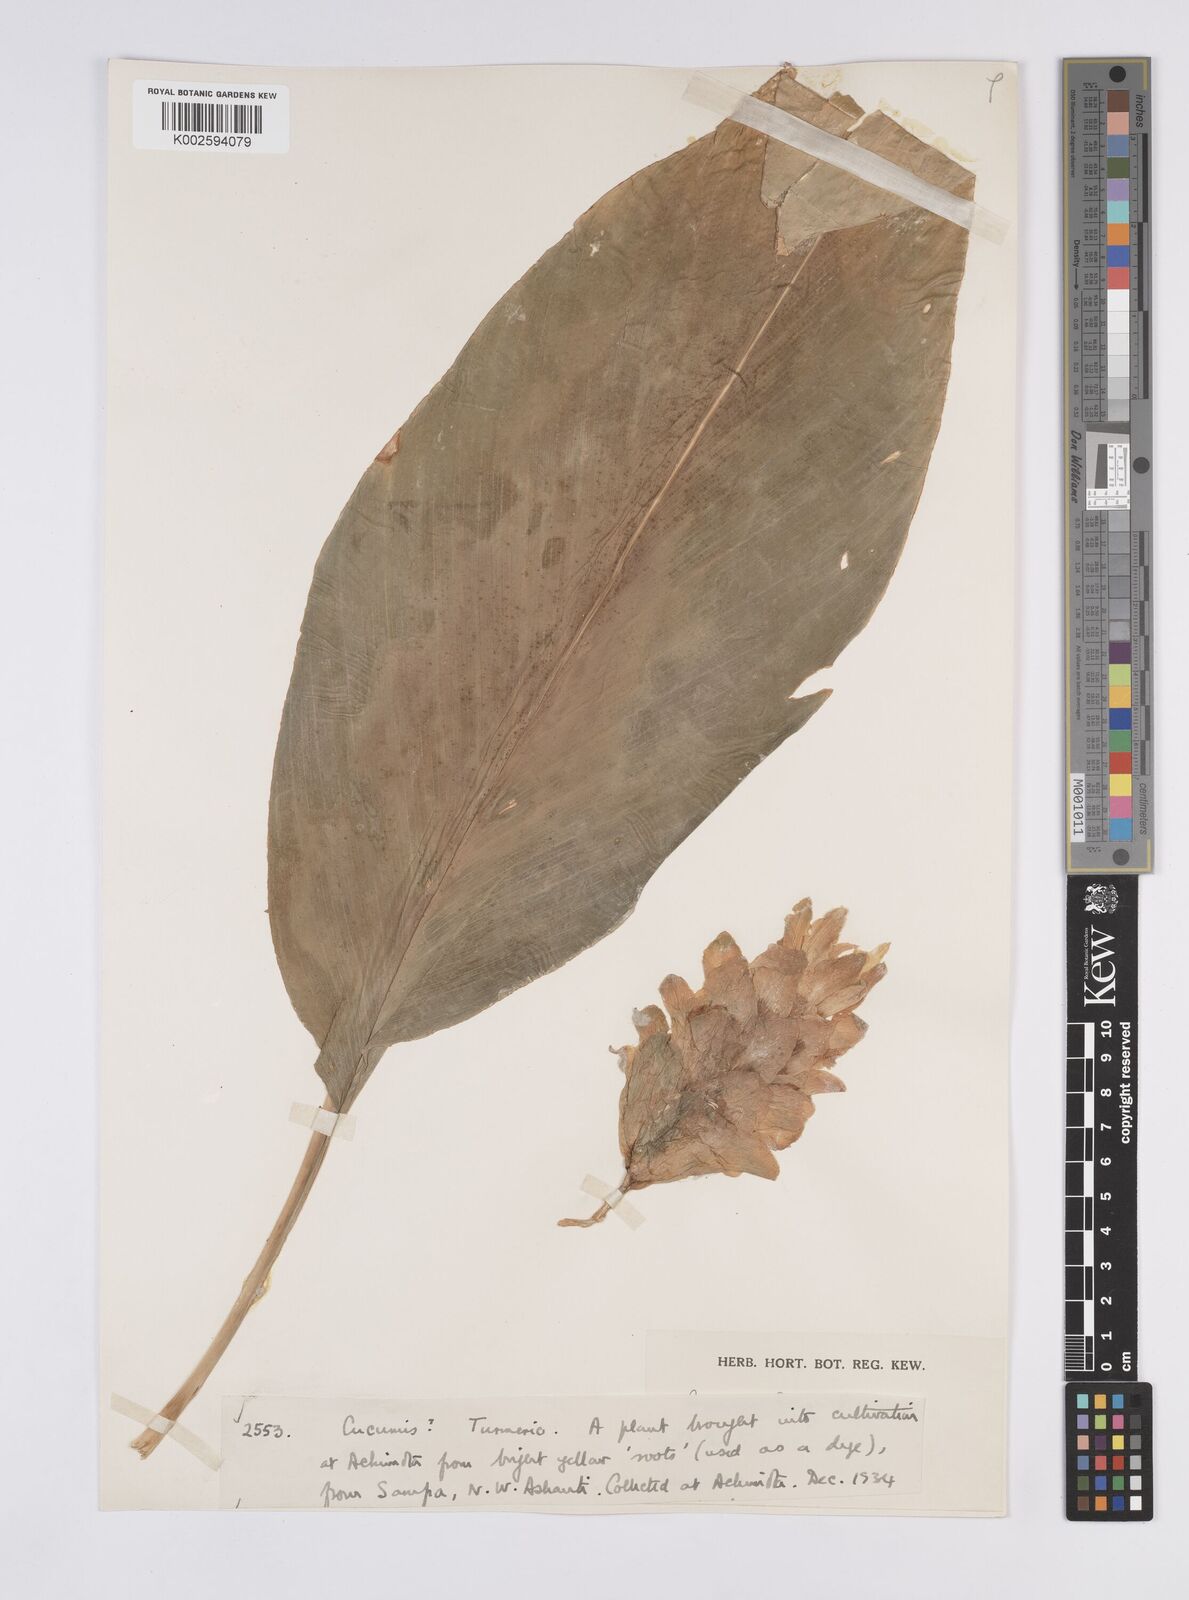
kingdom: Plantae
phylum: Tracheophyta
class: Liliopsida
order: Zingiberales
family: Zingiberaceae
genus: Curcuma
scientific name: Curcuma longa
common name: Turmeric
